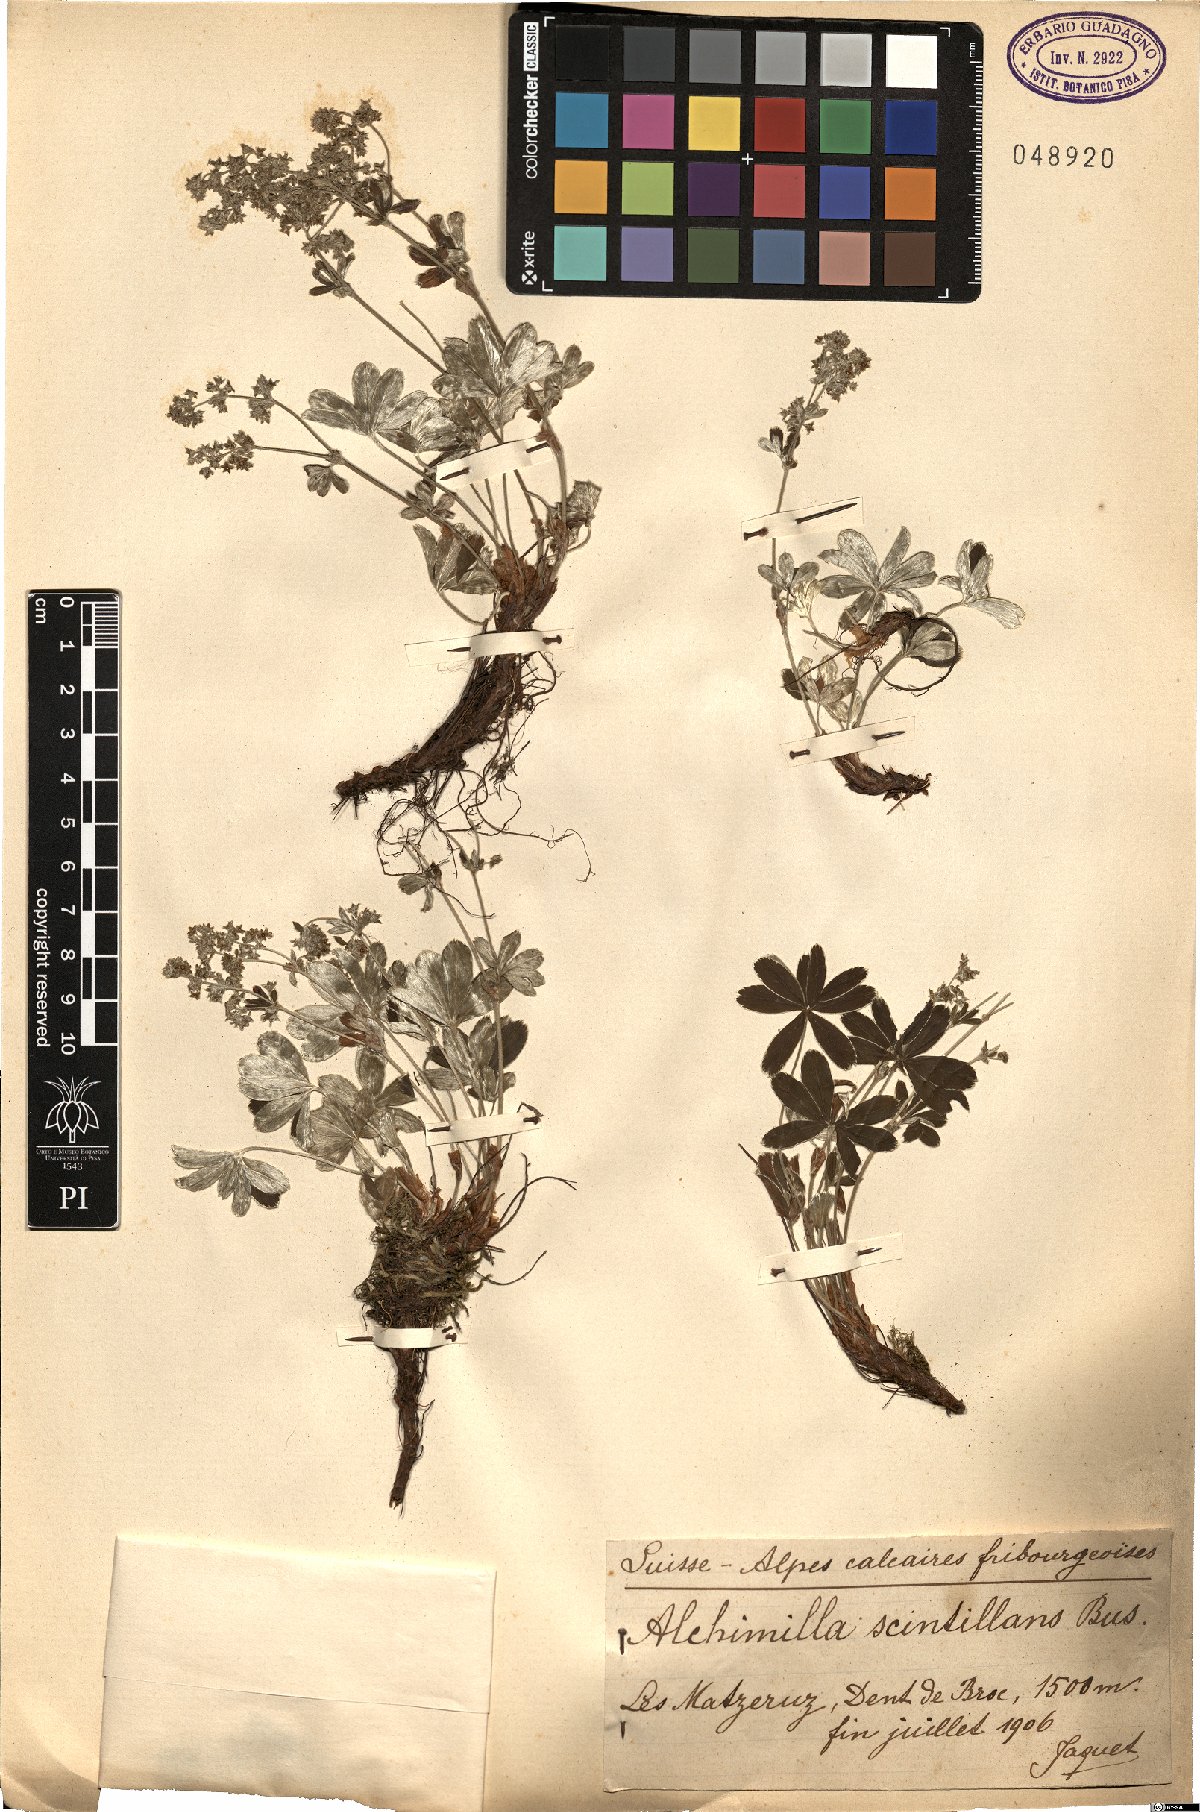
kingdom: Plantae
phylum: Tracheophyta
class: Magnoliopsida
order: Rosales
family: Rosaceae
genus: Alchemilla
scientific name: Alchemilla alpigena
